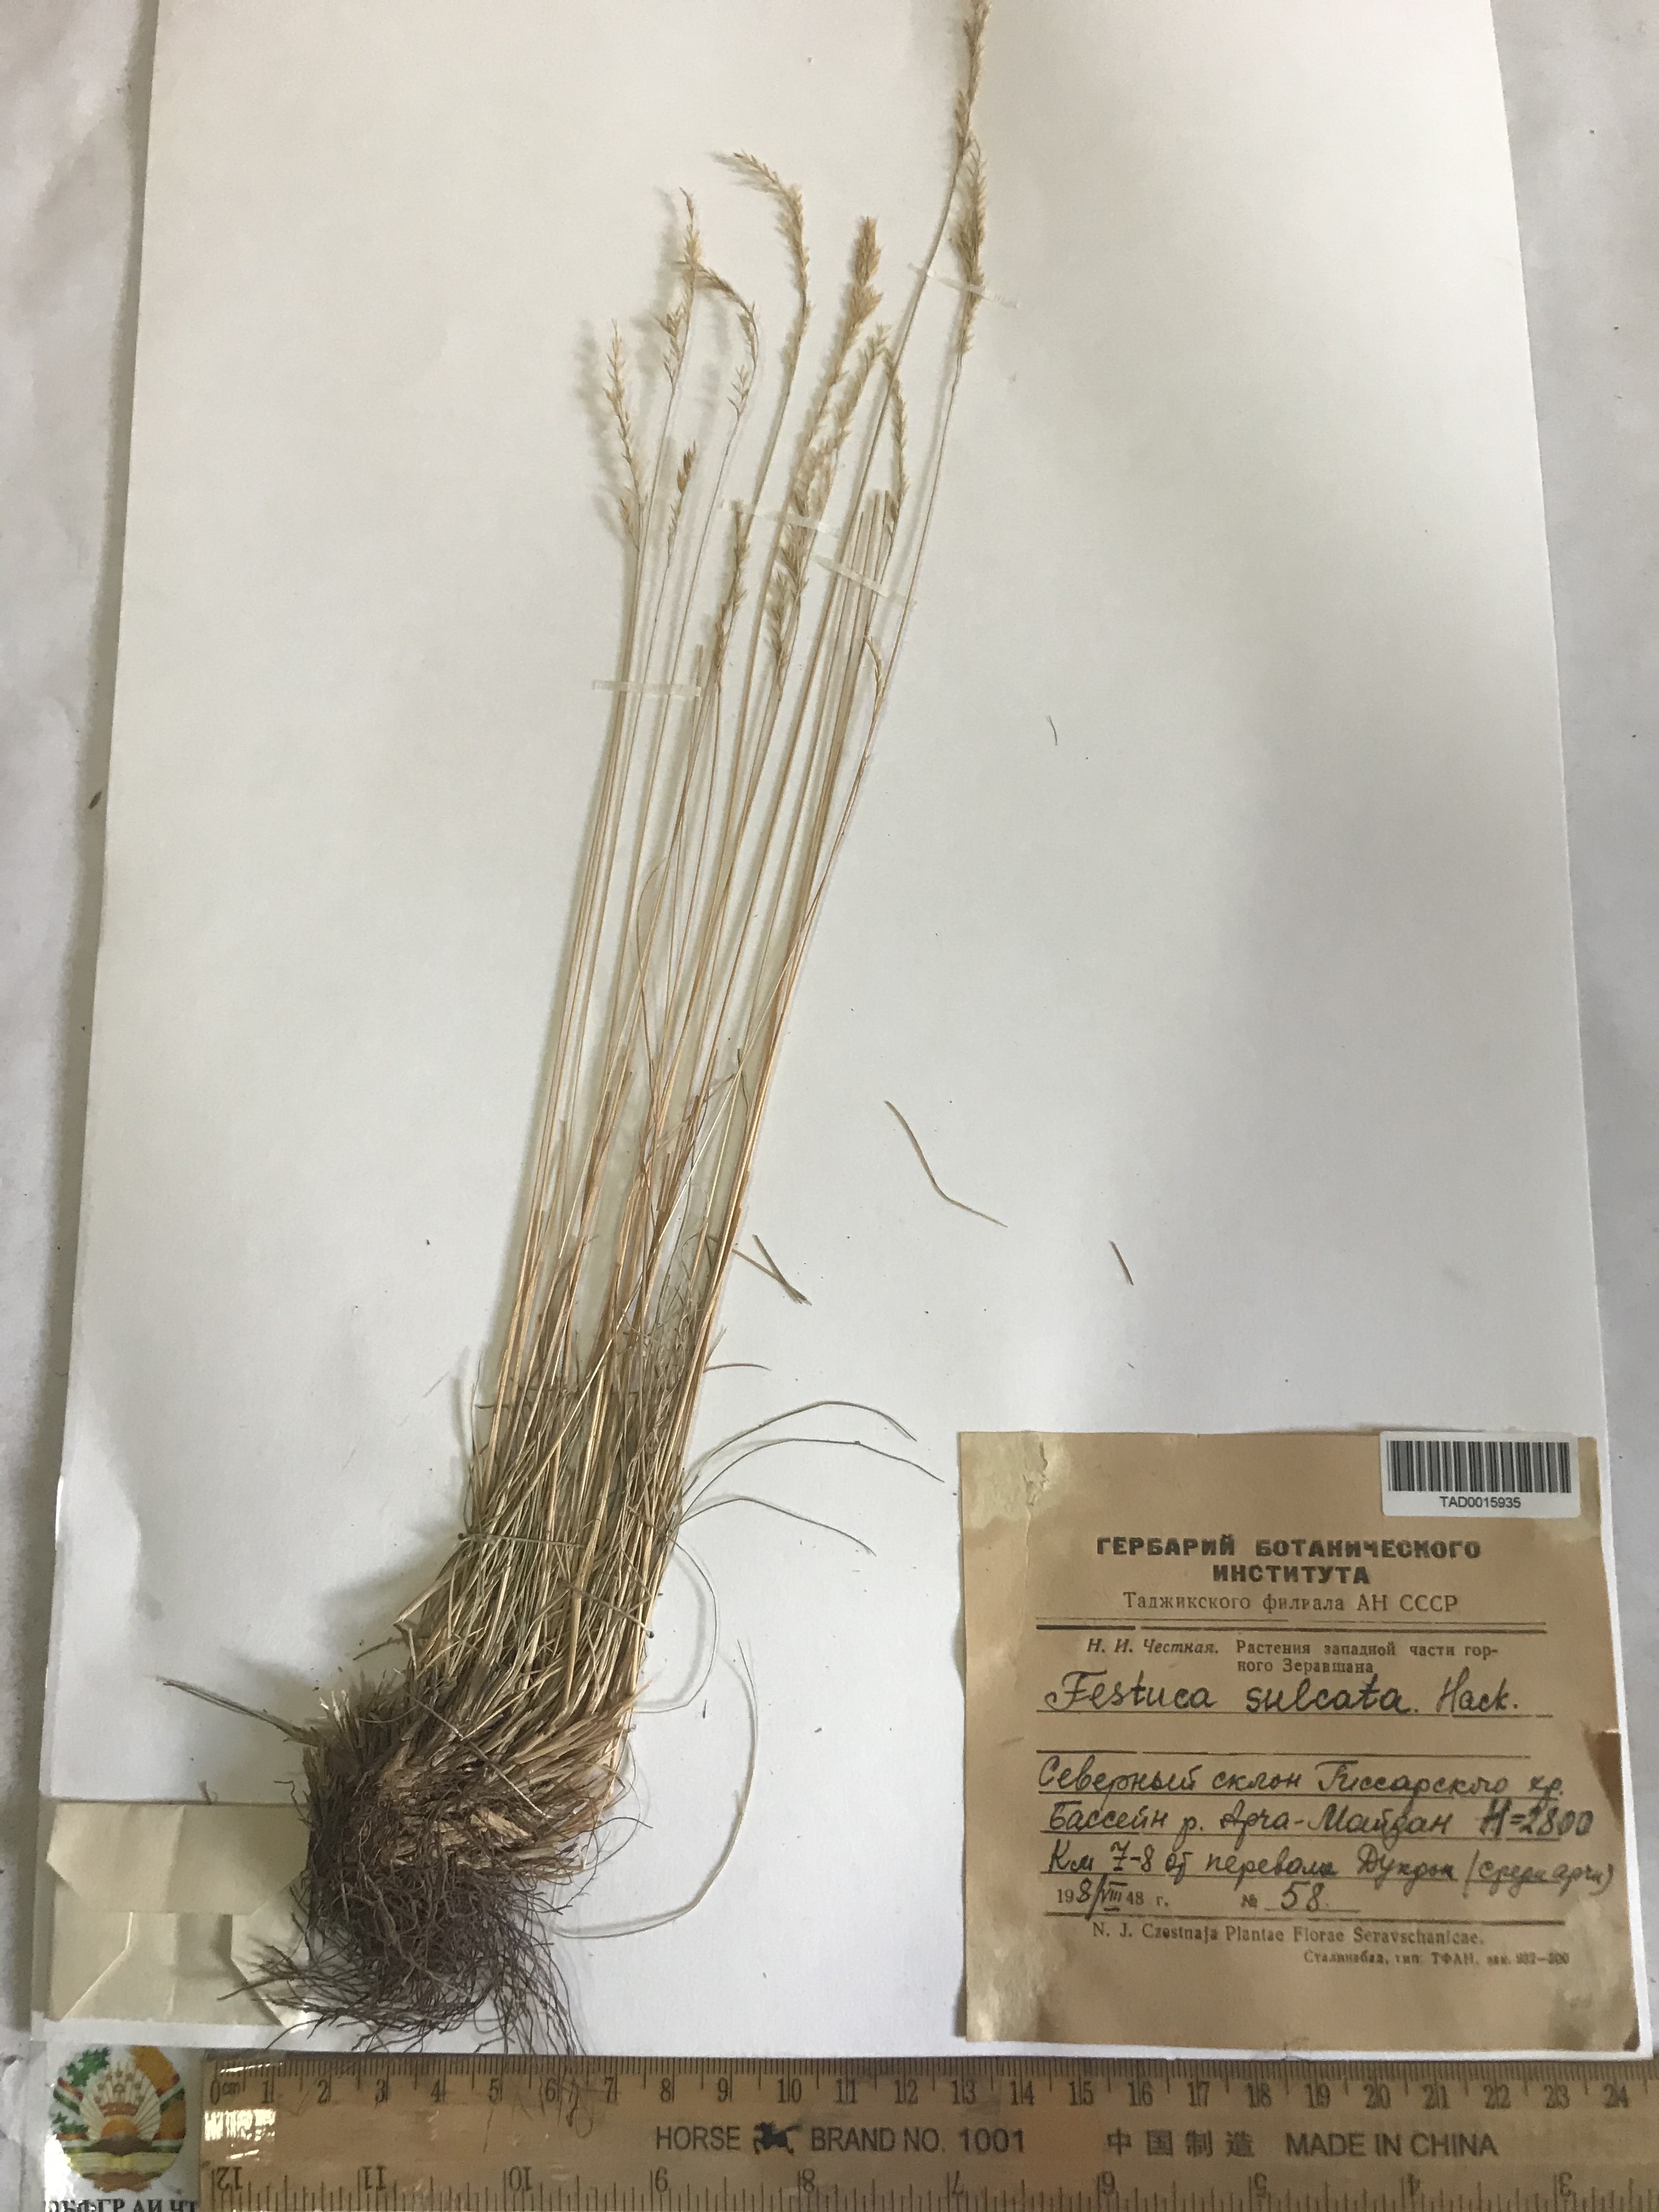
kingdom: Plantae
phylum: Tracheophyta
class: Liliopsida
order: Poales
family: Poaceae
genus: Festuca
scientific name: Festuca sulcata
